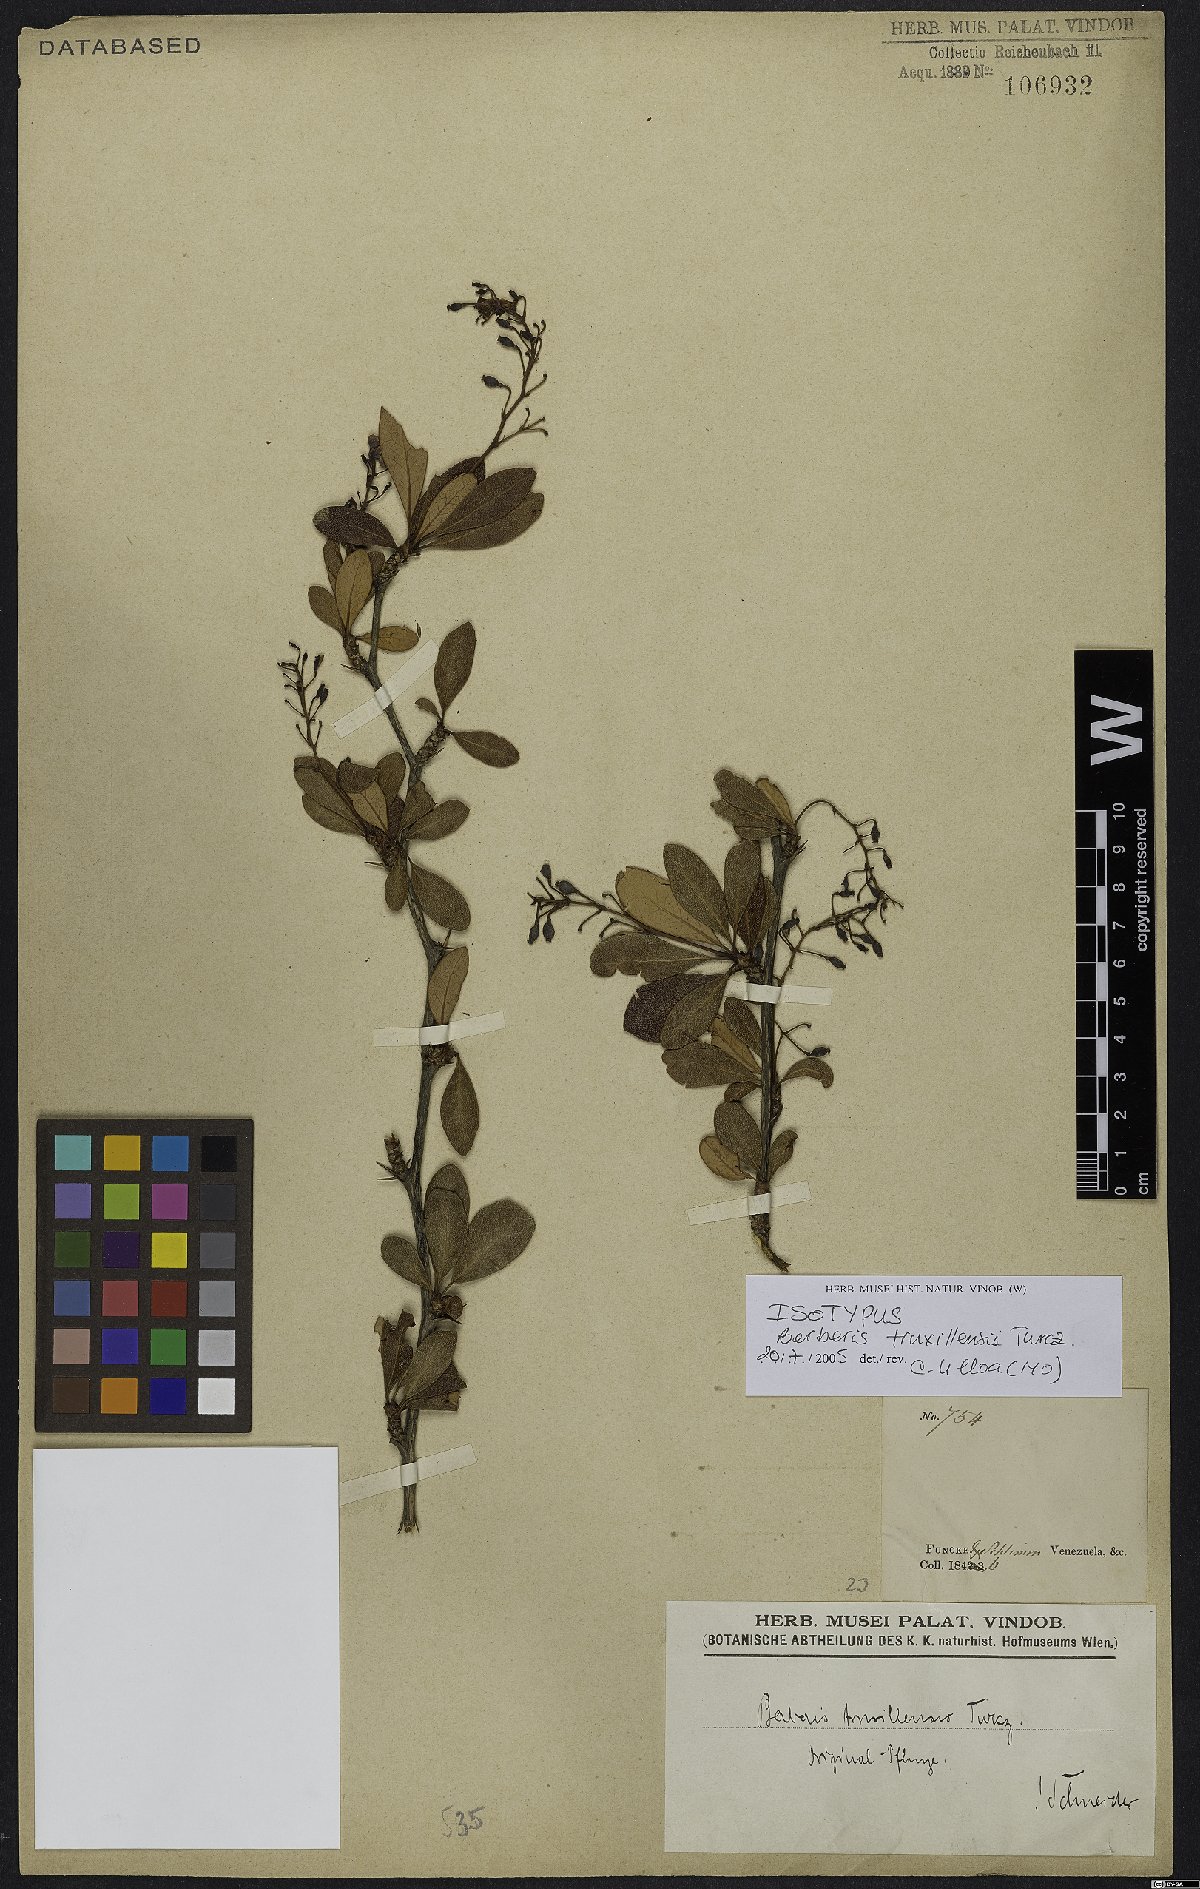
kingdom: Plantae
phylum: Tracheophyta
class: Magnoliopsida
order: Ranunculales
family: Berberidaceae
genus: Berberis
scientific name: Berberis truxillensis
